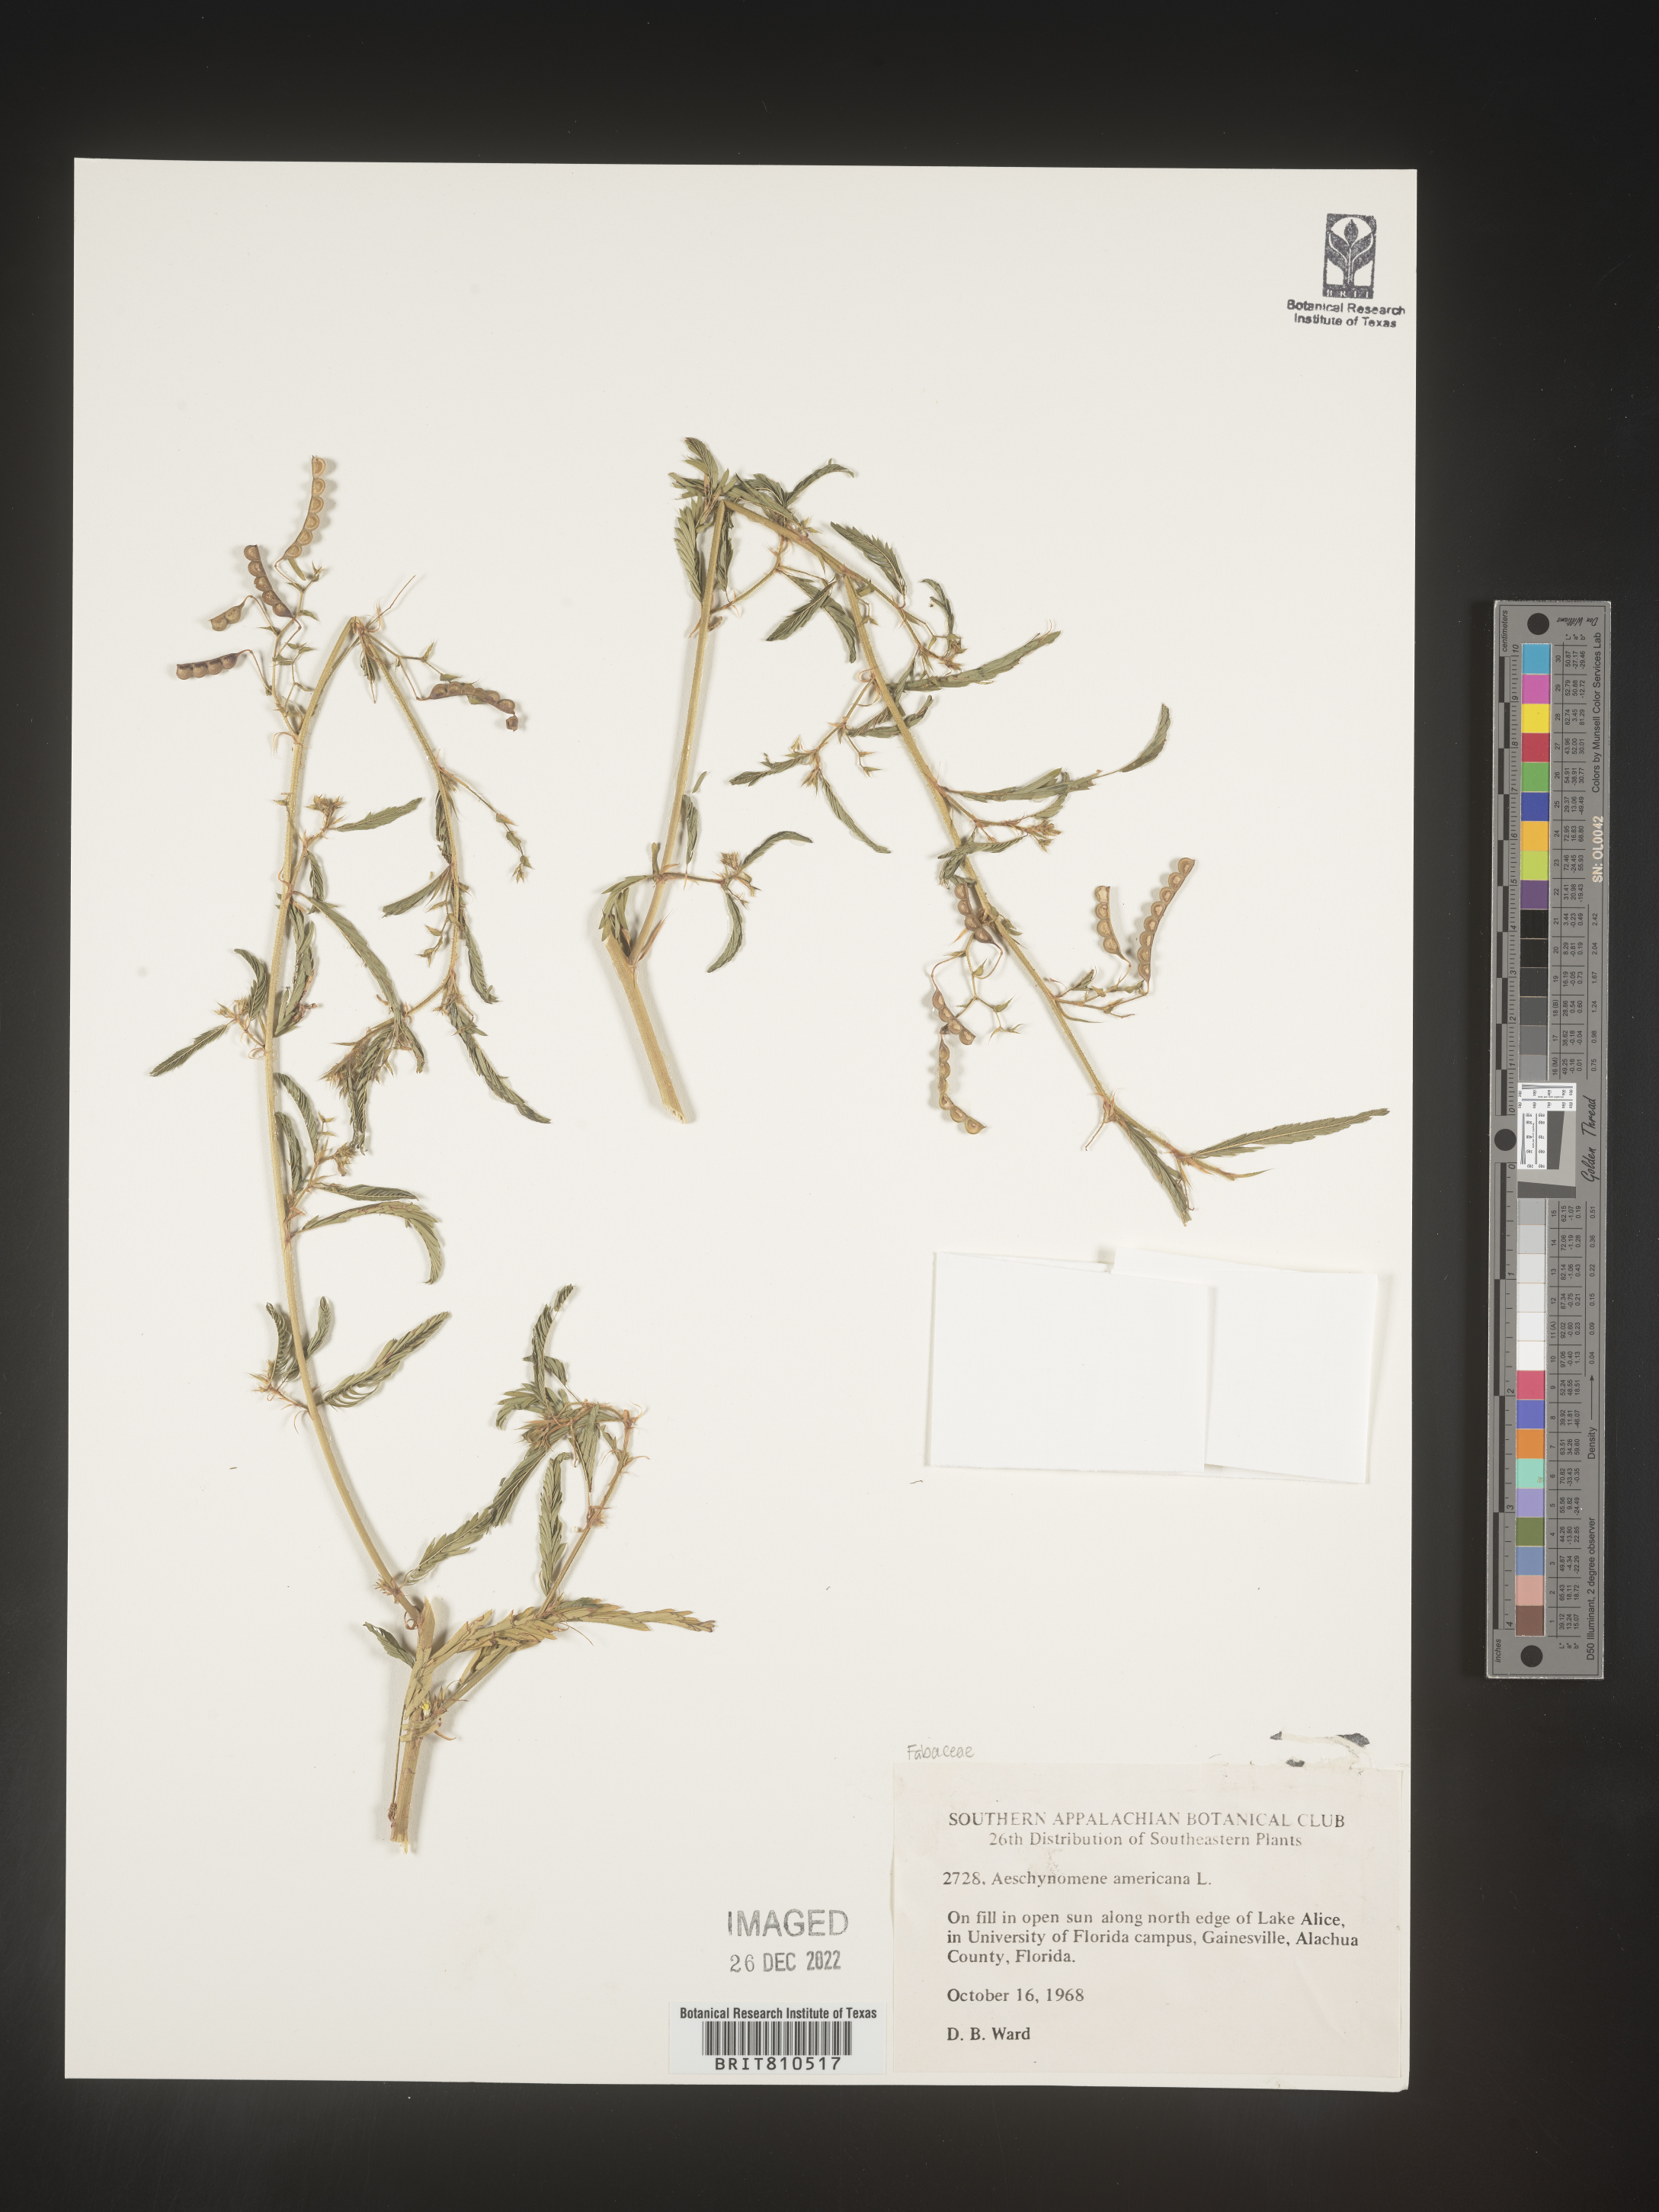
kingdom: Plantae
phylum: Tracheophyta
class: Magnoliopsida
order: Fabales
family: Fabaceae
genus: Aeschynomene
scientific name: Aeschynomene americana
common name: Joint-vetch
